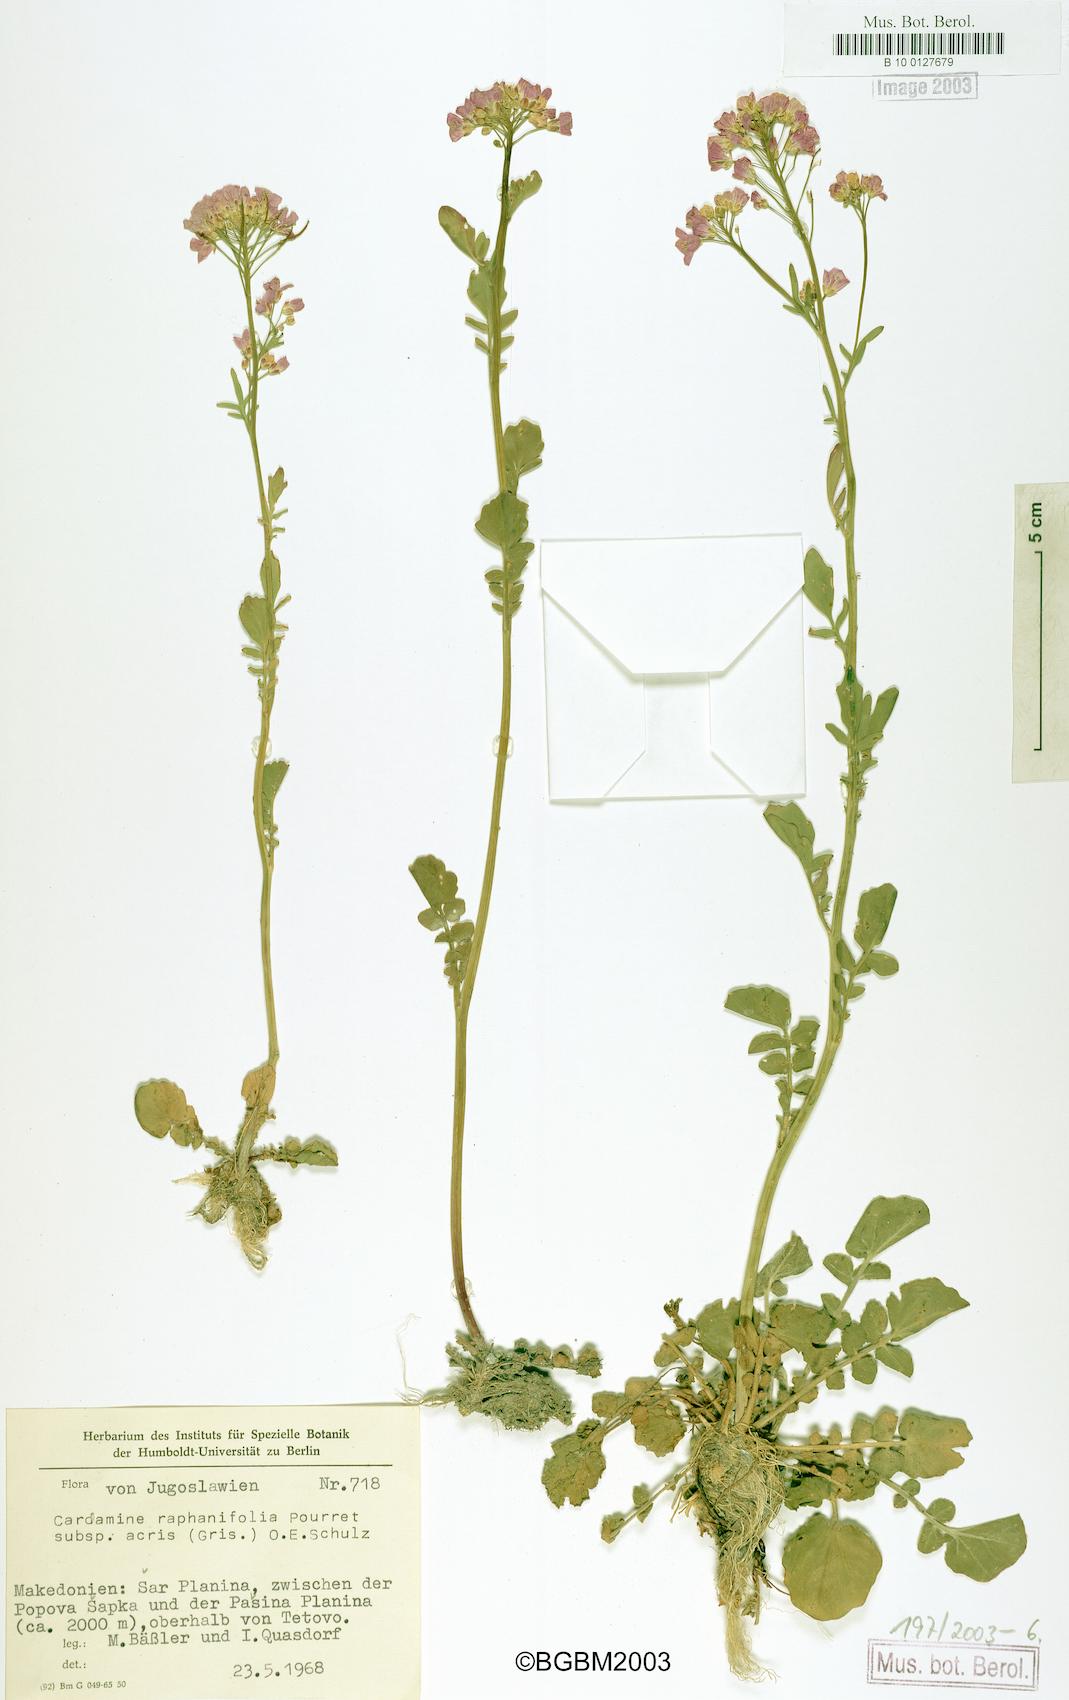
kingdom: Plantae
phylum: Tracheophyta
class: Magnoliopsida
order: Brassicales
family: Brassicaceae
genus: Cardamine
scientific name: Cardamine raphanifolia
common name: Greater cuckooflower
